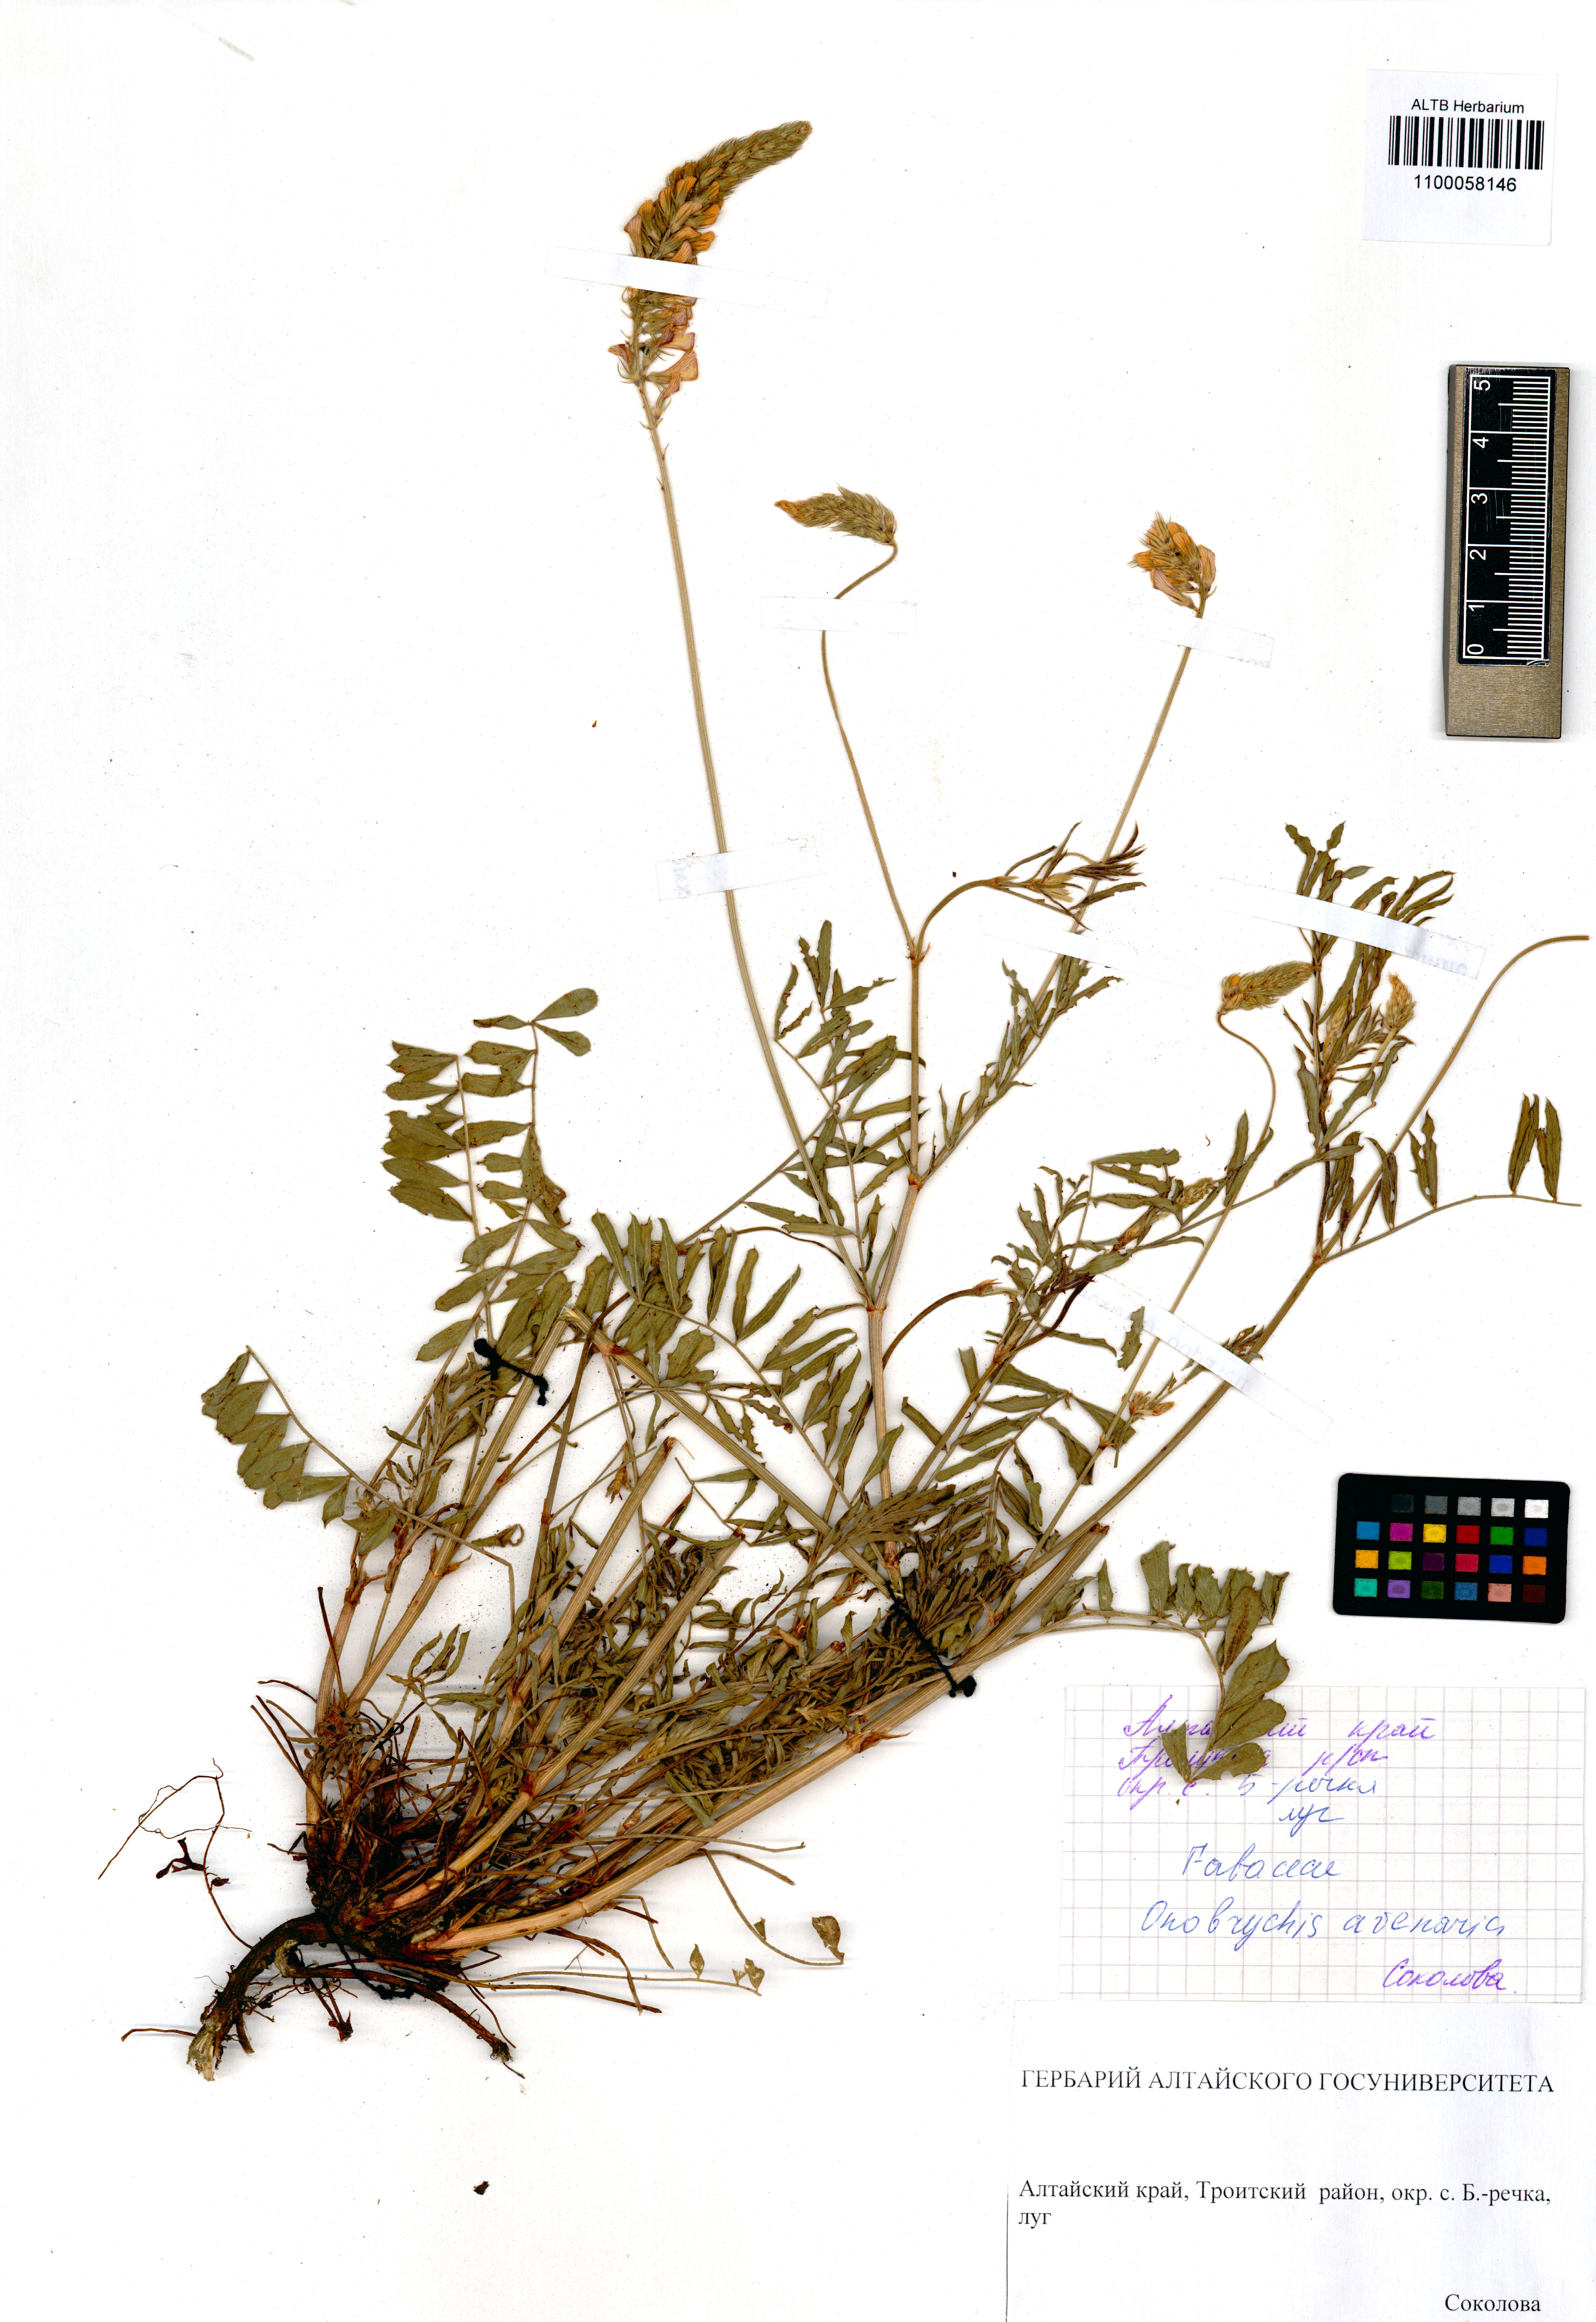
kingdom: Plantae
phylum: Tracheophyta
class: Magnoliopsida
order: Fabales
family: Fabaceae
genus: Onobrychis
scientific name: Onobrychis arenaria
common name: Sand esparcet
